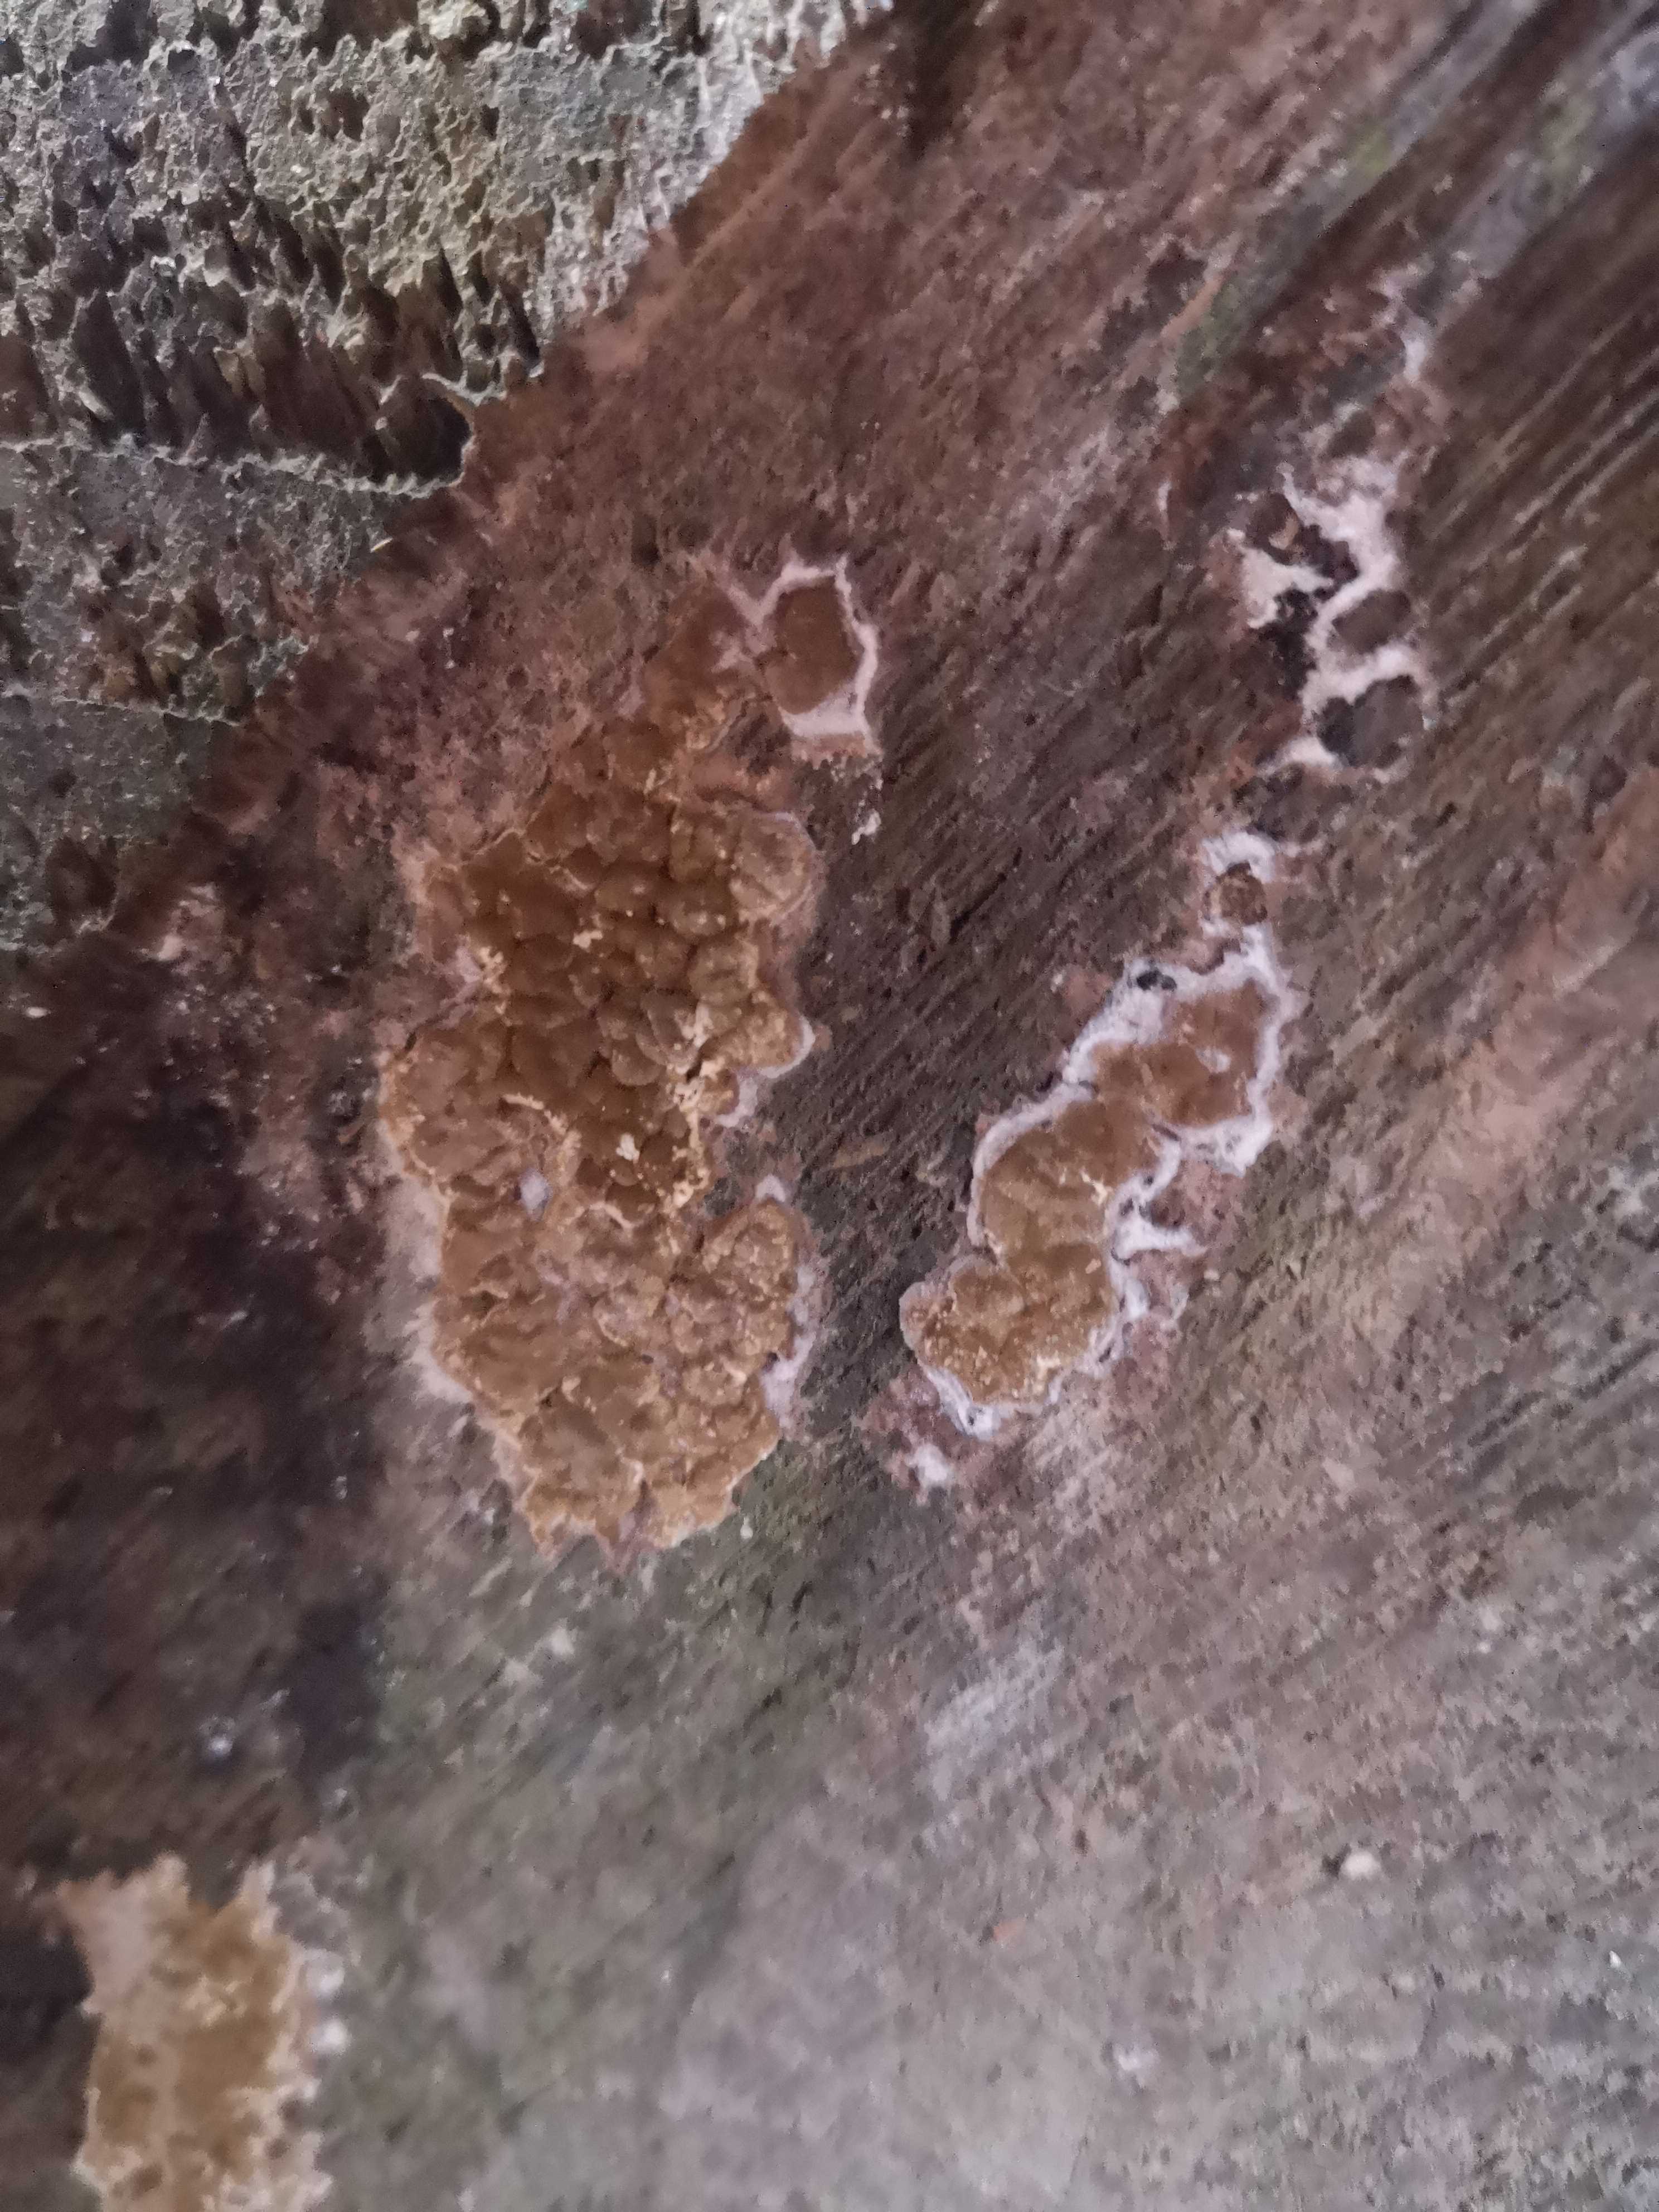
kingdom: Fungi
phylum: Basidiomycota
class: Agaricomycetes
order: Boletales
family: Coniophoraceae
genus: Coniophora
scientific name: Coniophora puteana
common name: gul tømmersvamp
